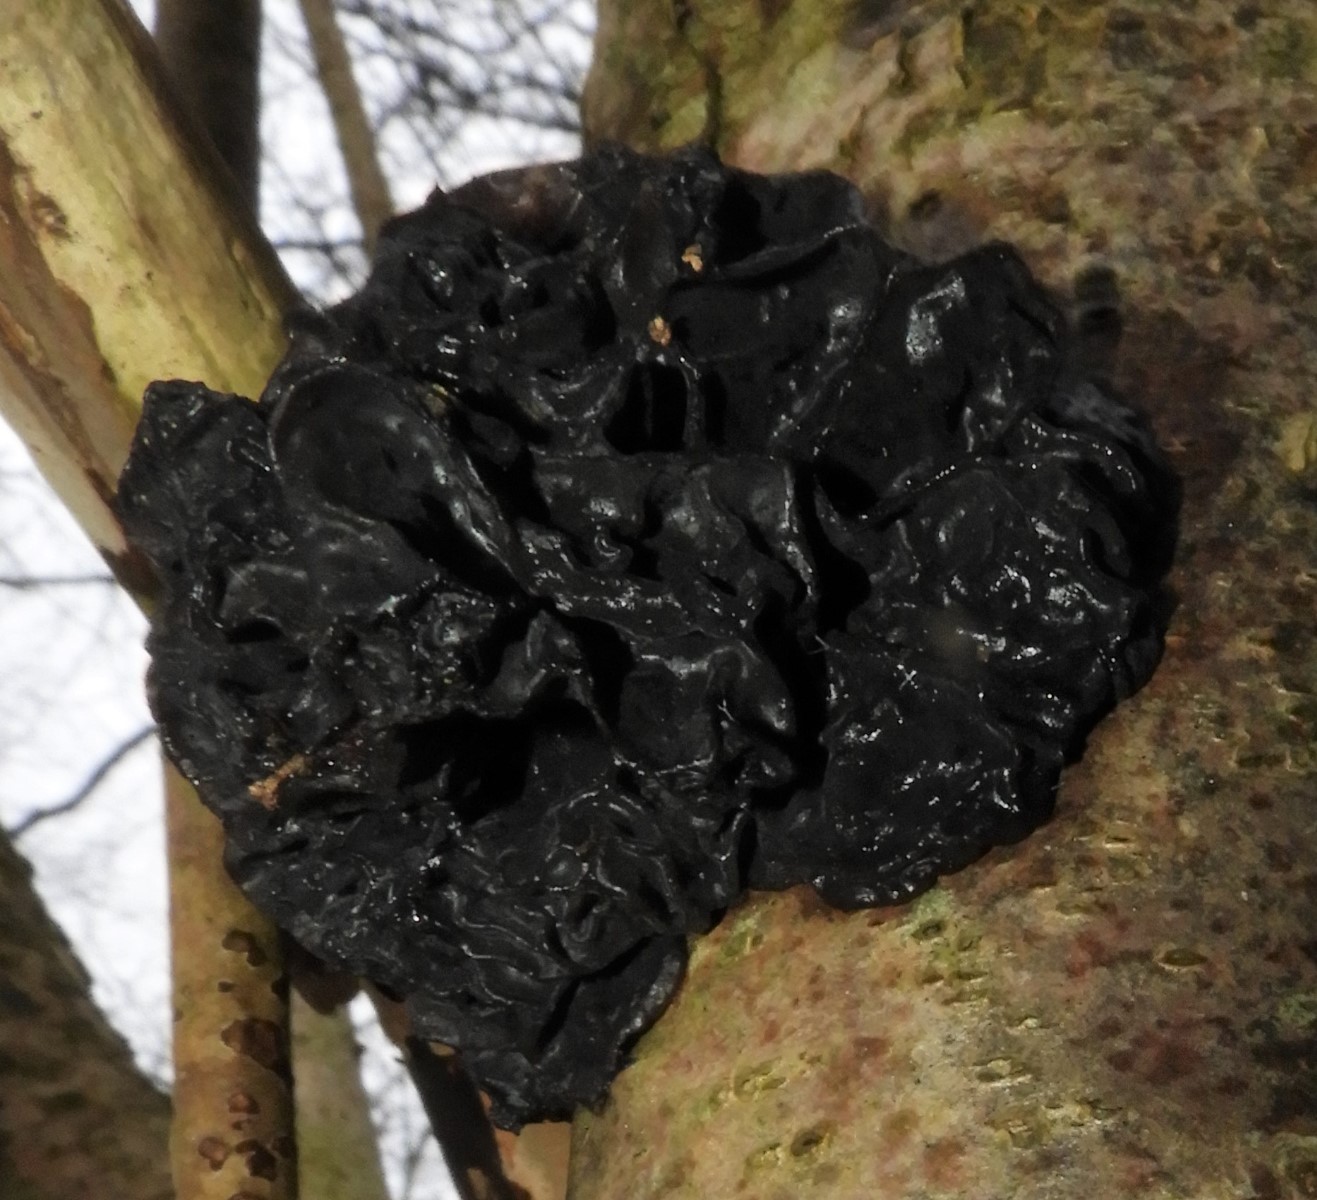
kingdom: Fungi
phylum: Basidiomycota
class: Agaricomycetes
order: Auriculariales
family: Auriculariaceae
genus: Exidia
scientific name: Exidia glandulosa
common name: ege-bævretop
